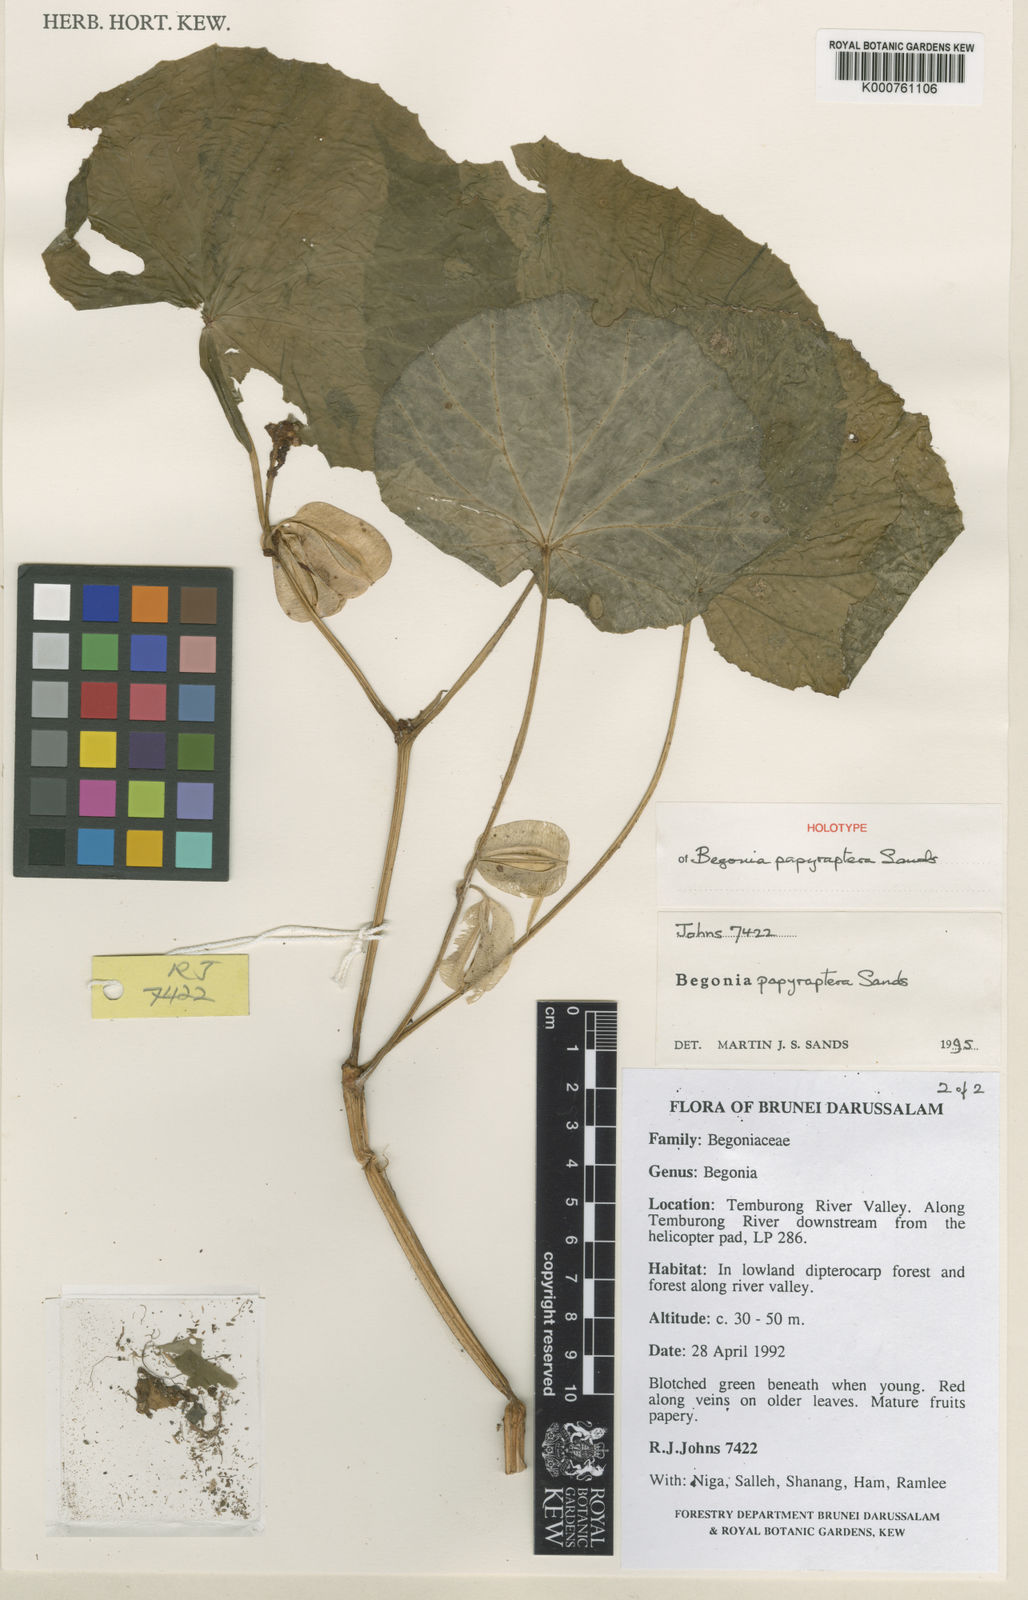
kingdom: Plantae
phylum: Tracheophyta
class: Magnoliopsida
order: Cucurbitales
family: Begoniaceae
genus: Begonia
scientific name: Begonia papyraptera
